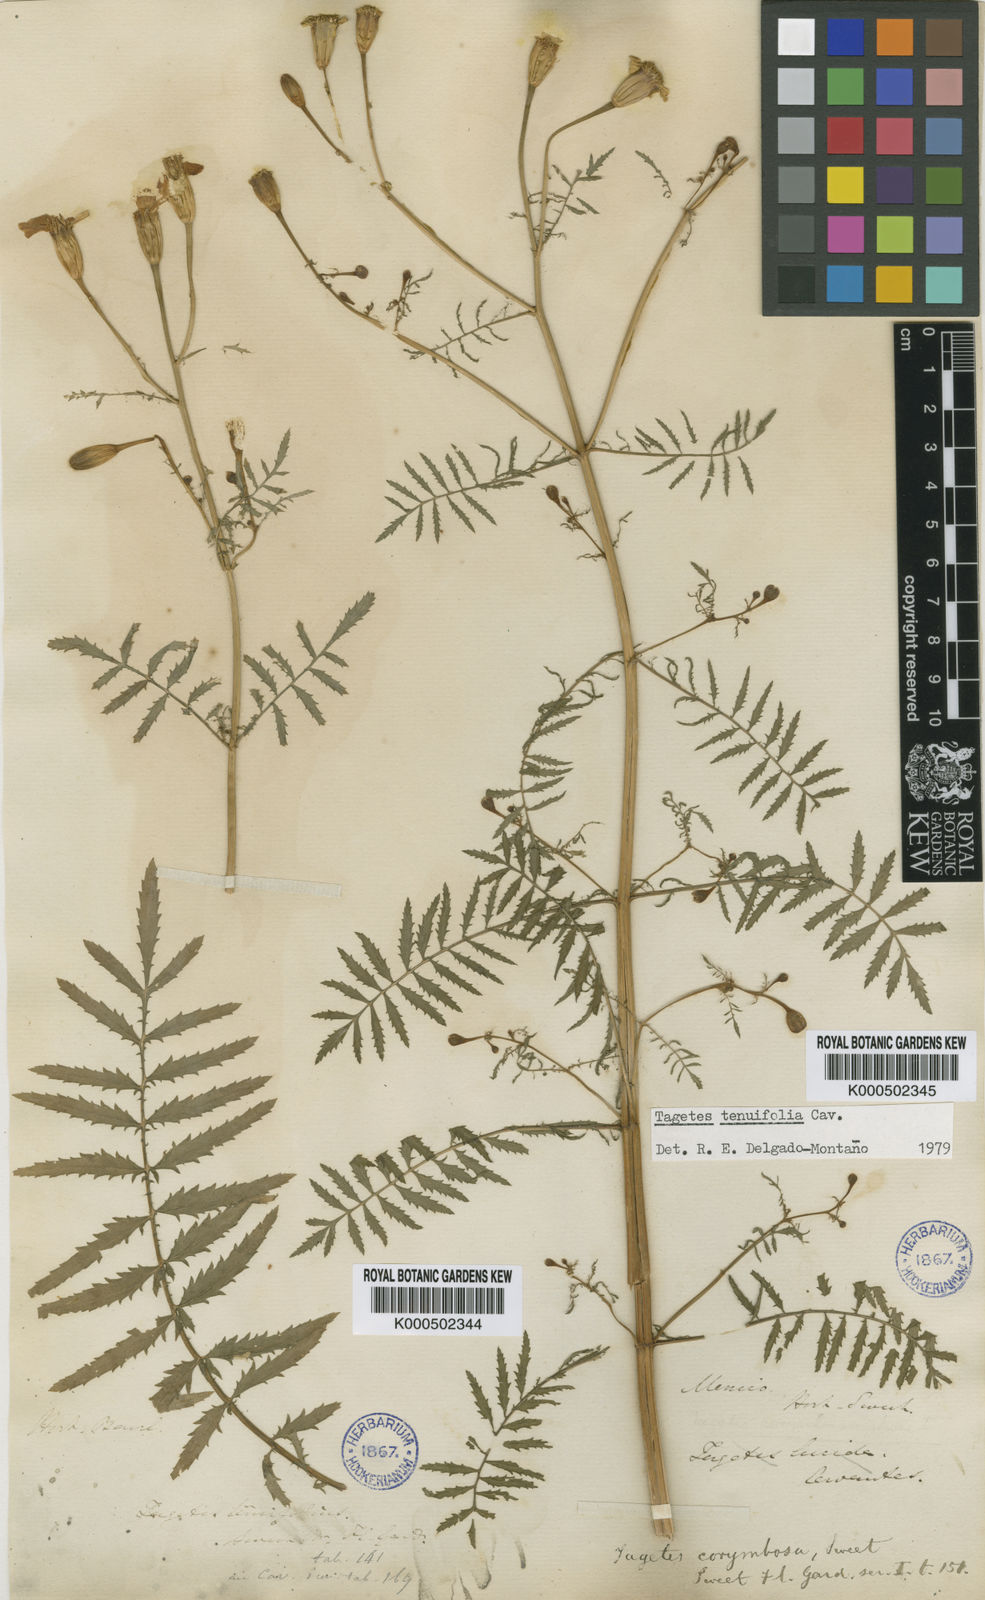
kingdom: Plantae
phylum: Tracheophyta
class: Magnoliopsida
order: Asterales
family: Asteraceae
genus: Tagetes
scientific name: Tagetes tenuifolia
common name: Signet marigold
